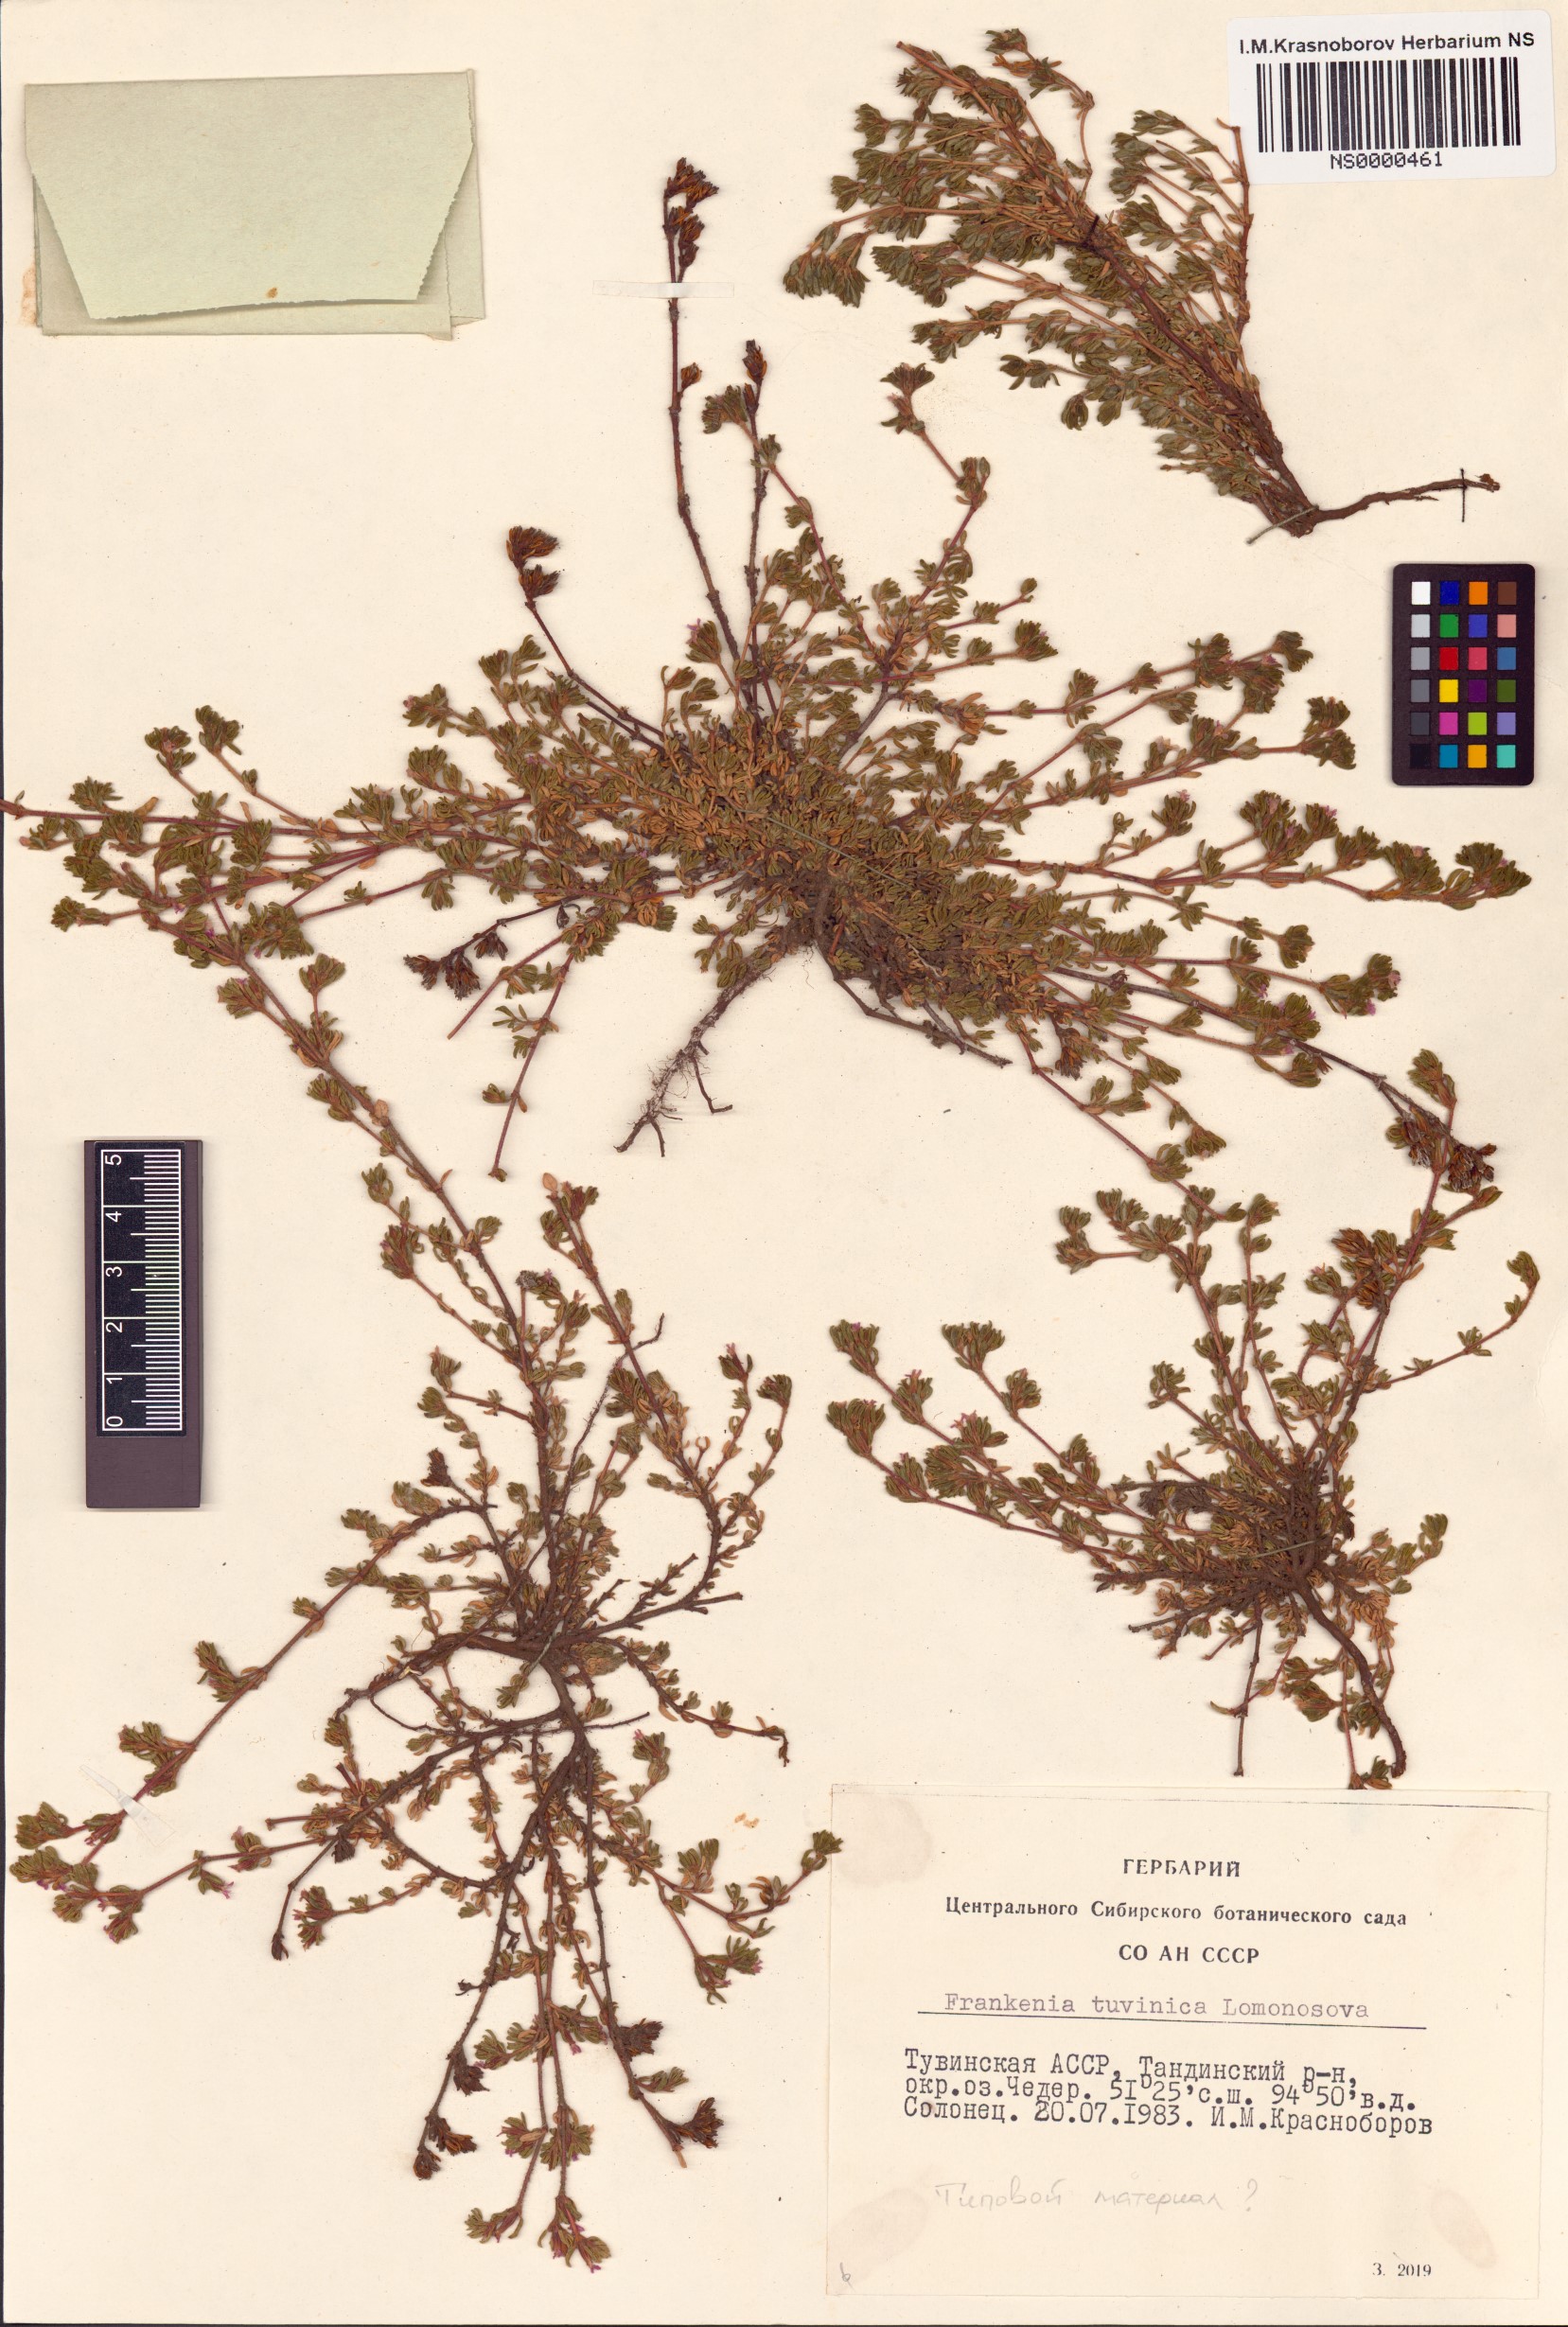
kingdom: Plantae
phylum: Tracheophyta
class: Magnoliopsida
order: Caryophyllales
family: Frankeniaceae
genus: Frankenia
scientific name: Frankenia tuvinica
